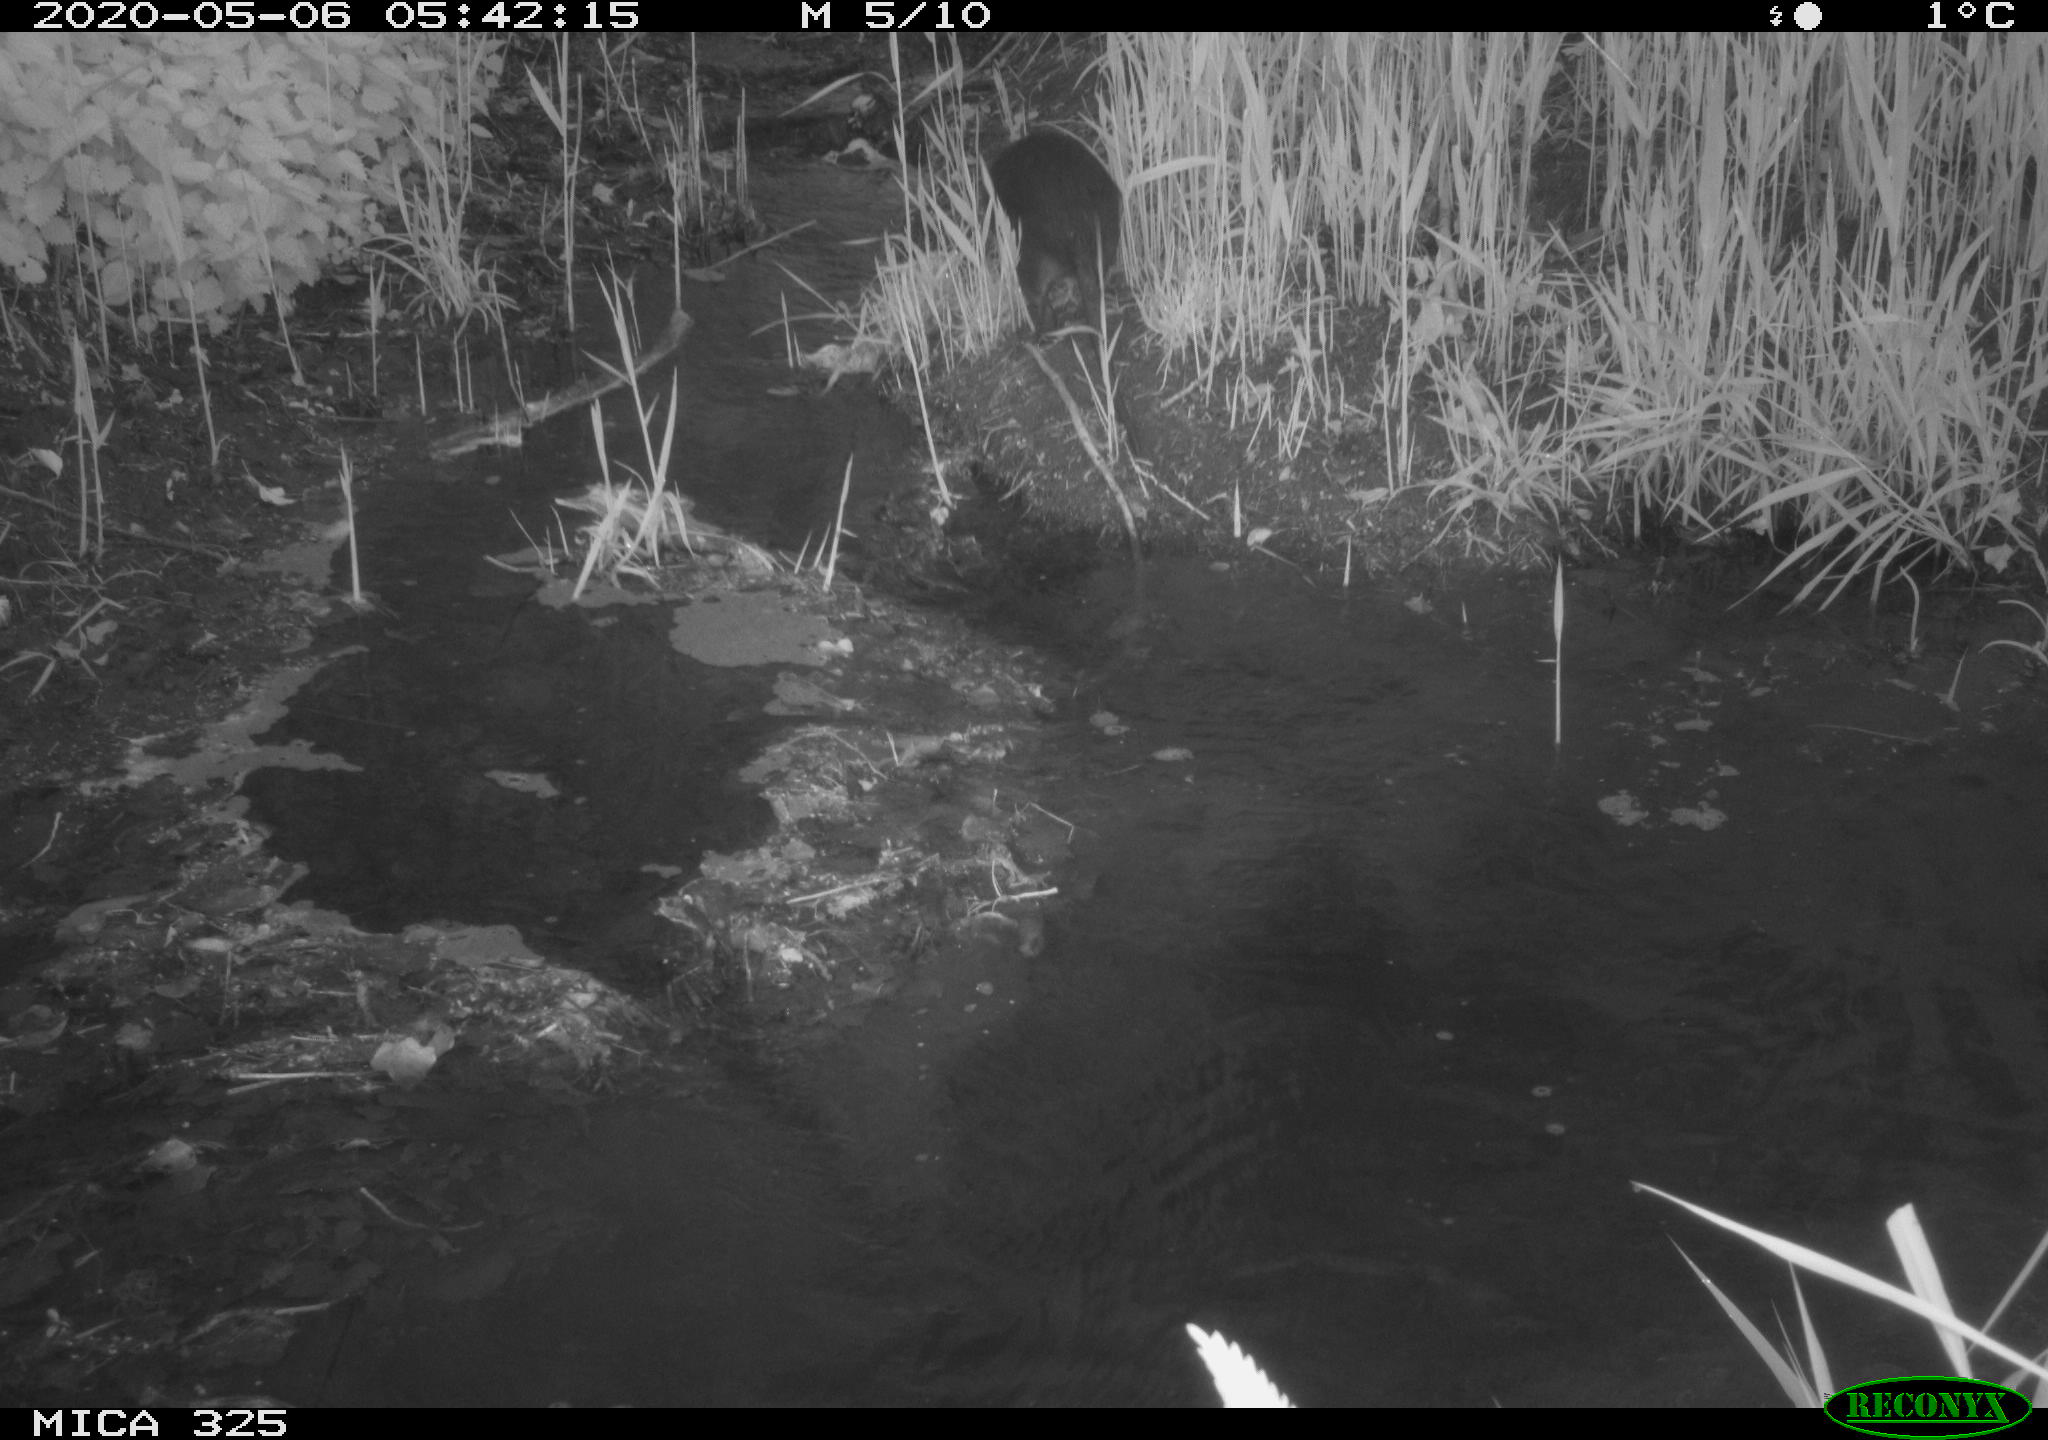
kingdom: Animalia
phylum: Chordata
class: Mammalia
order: Rodentia
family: Myocastoridae
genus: Myocastor
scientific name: Myocastor coypus
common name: Coypu
